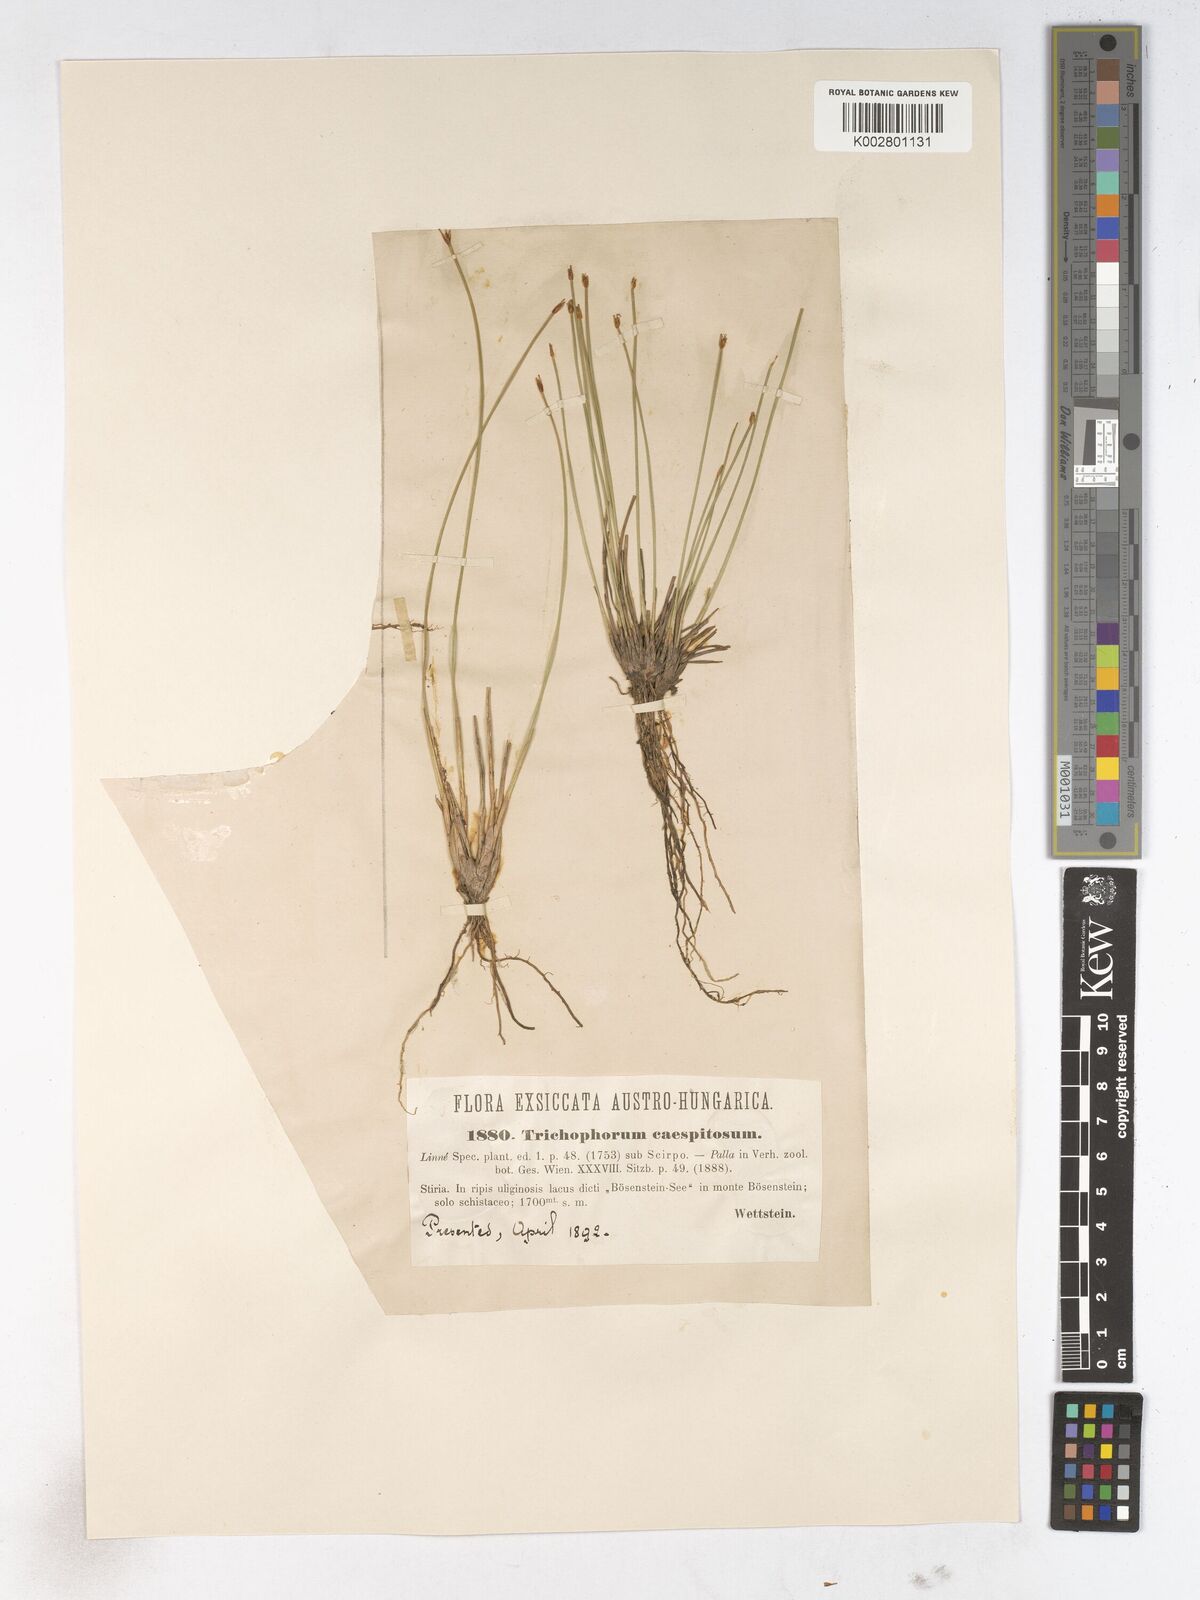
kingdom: Plantae
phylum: Tracheophyta
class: Liliopsida
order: Poales
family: Cyperaceae
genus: Trichophorum
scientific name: Trichophorum cespitosum
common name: Cespitose bulrush
